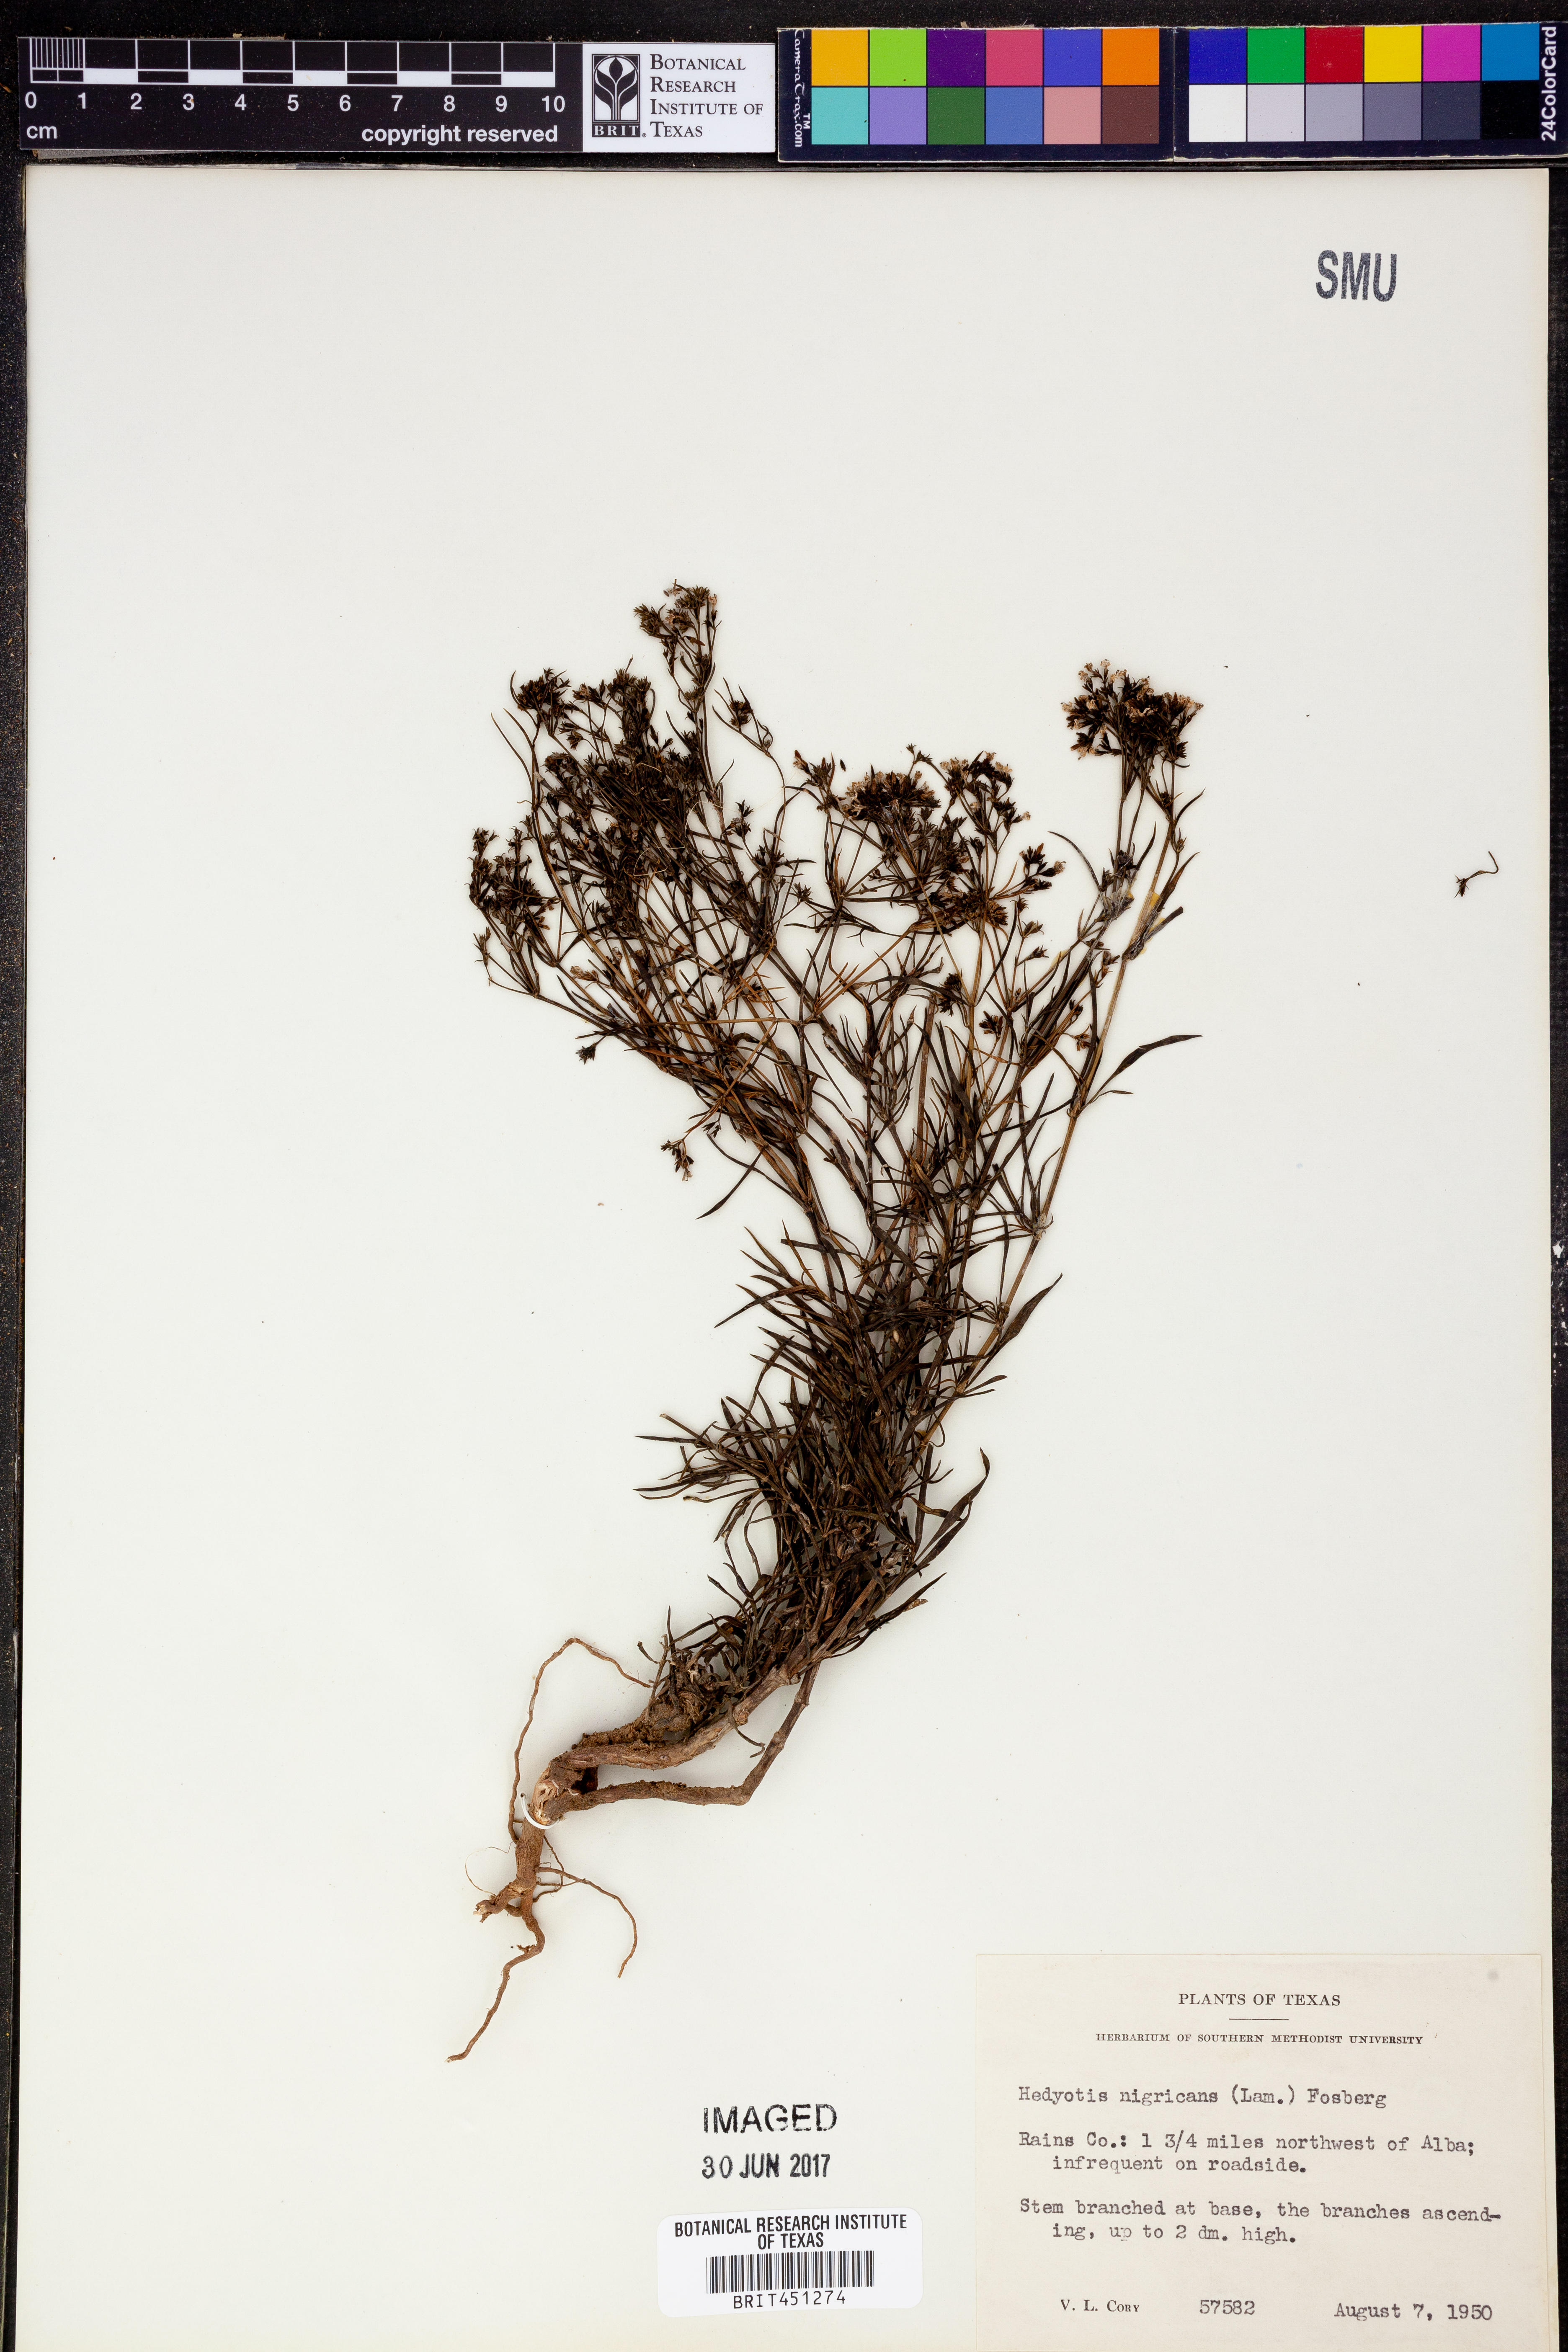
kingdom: Plantae
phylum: Tracheophyta
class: Magnoliopsida
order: Gentianales
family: Rubiaceae
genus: Stenaria
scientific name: Stenaria nigricans
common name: Diamondflowers
